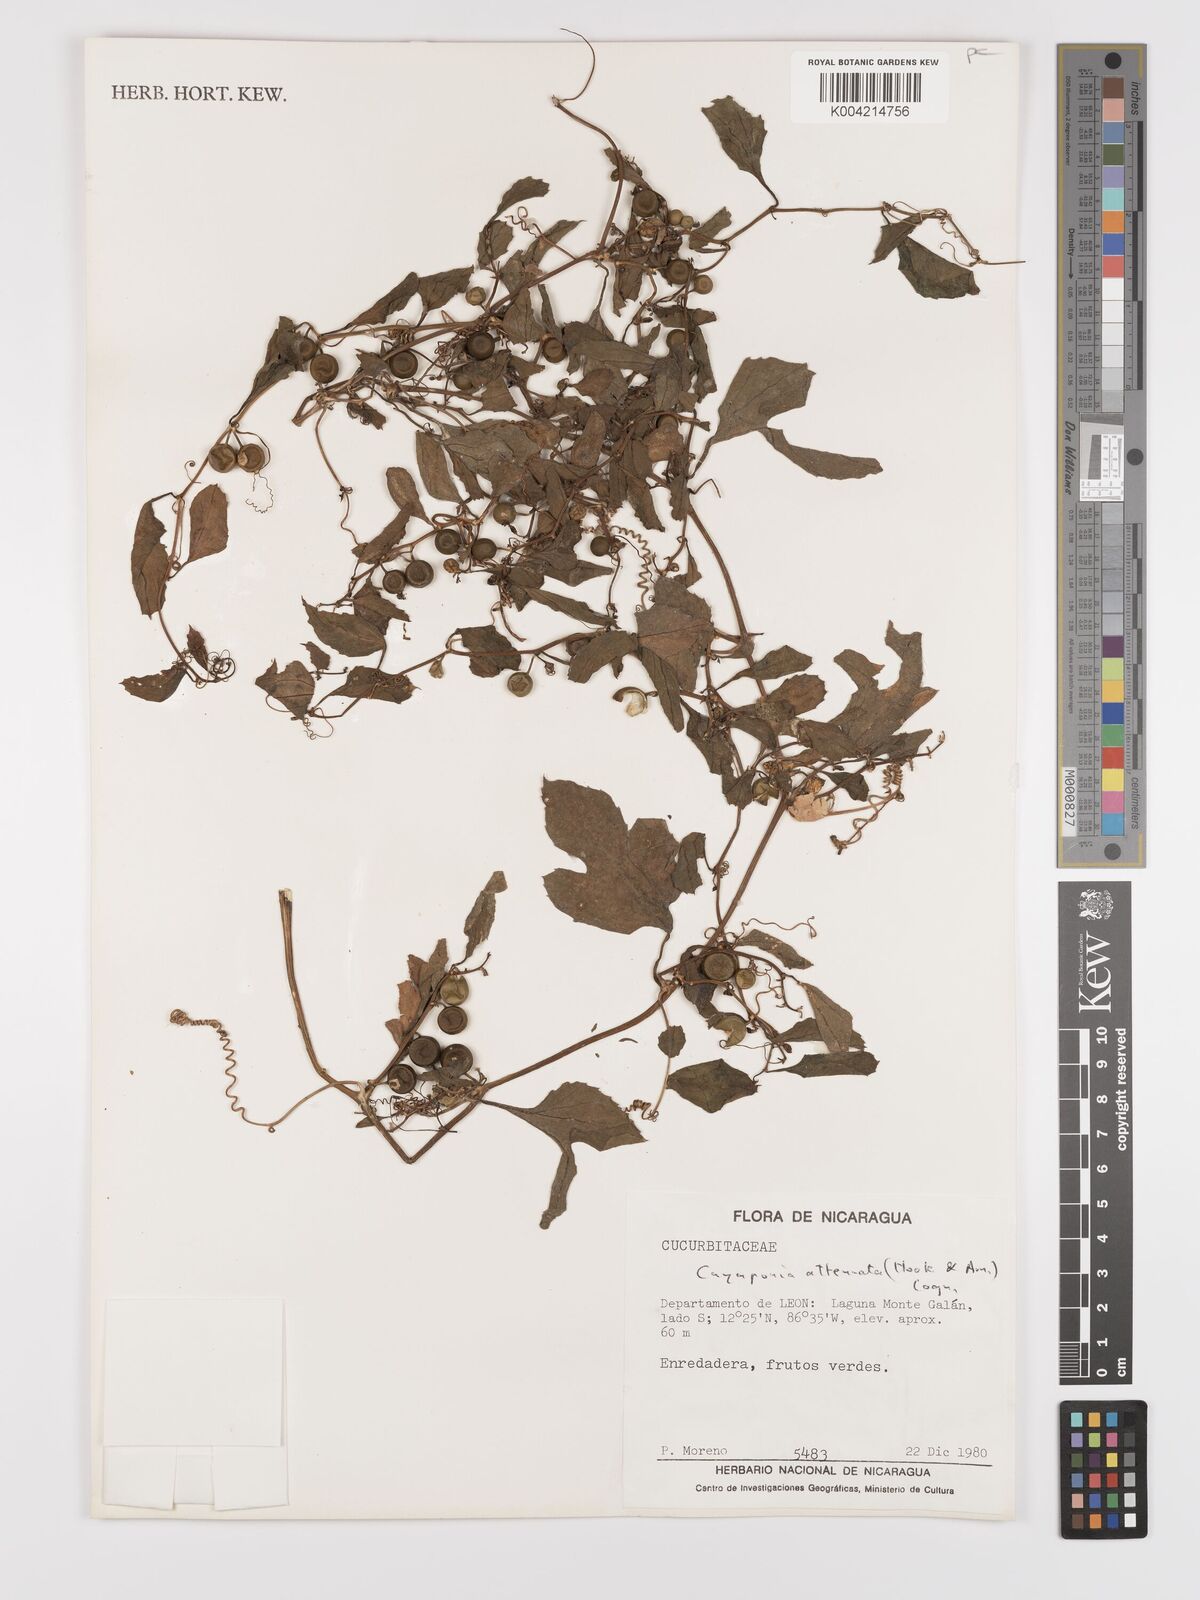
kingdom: Plantae
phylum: Tracheophyta
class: Magnoliopsida
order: Cucurbitales
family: Cucurbitaceae
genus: Cayaponia
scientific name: Cayaponia attenuata
